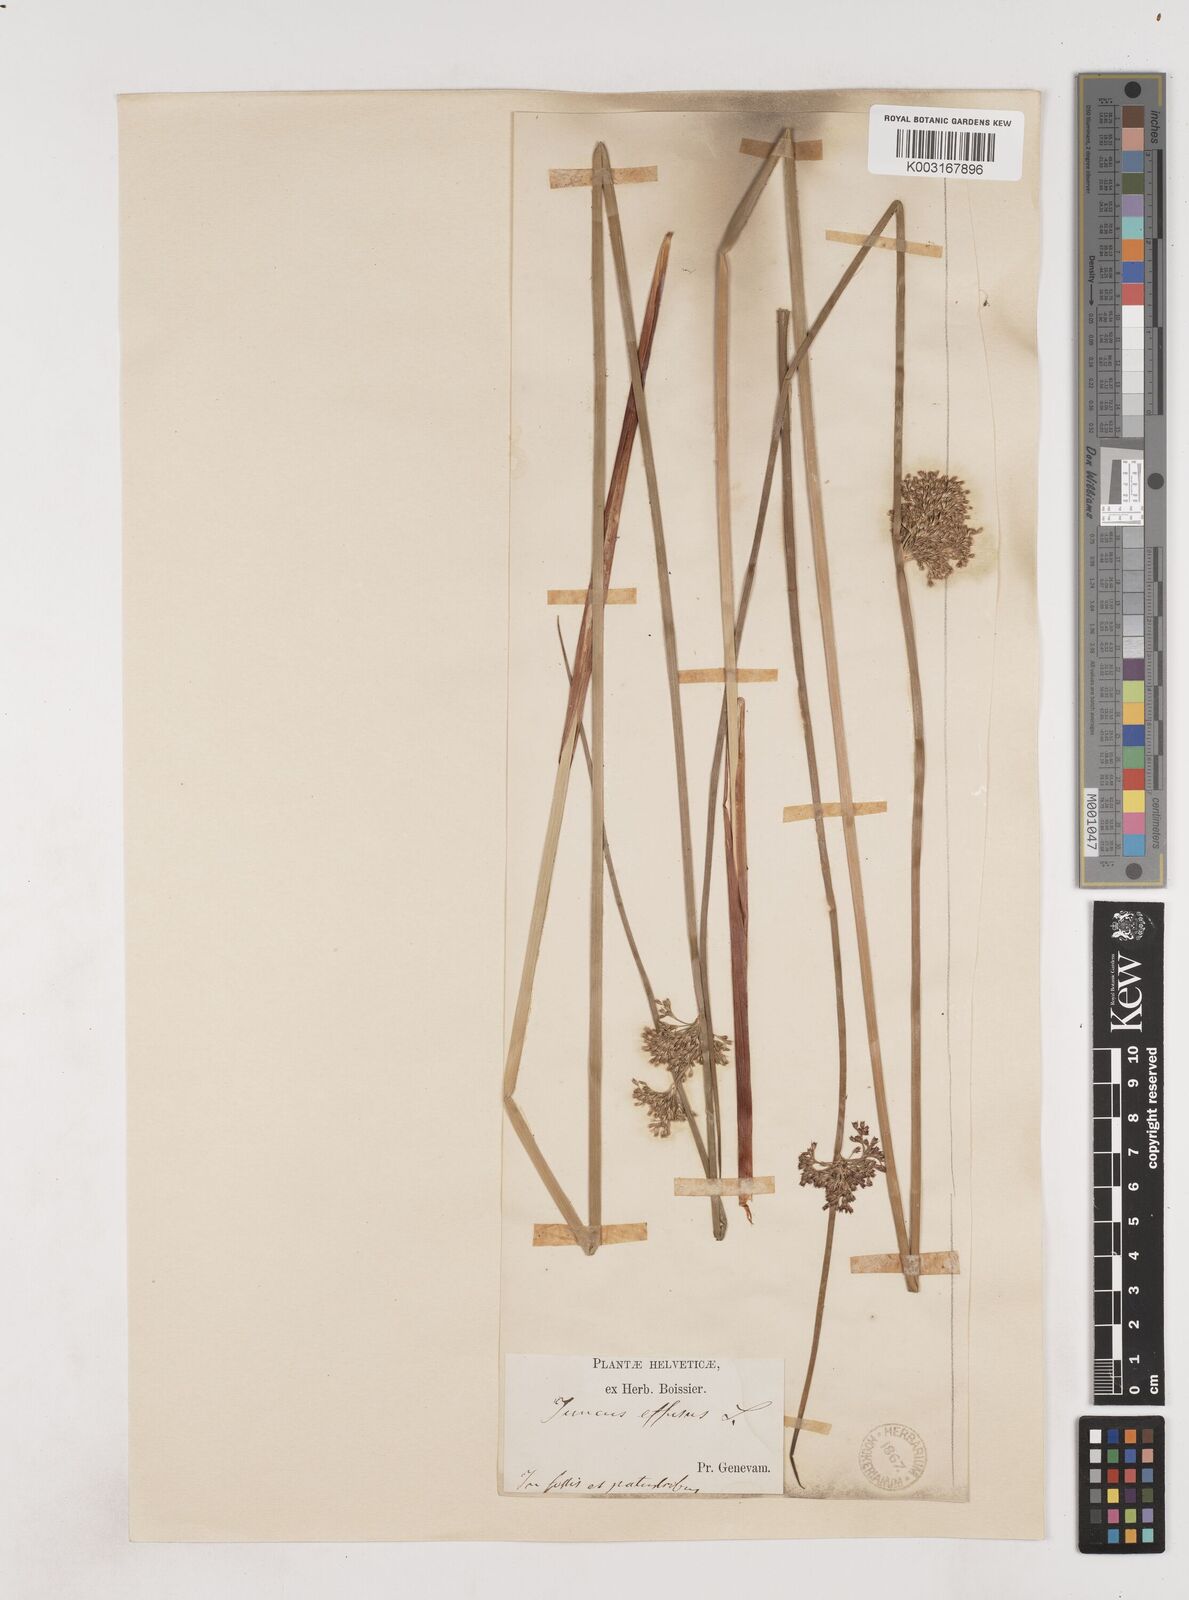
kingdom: Plantae
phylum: Tracheophyta
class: Liliopsida
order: Poales
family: Juncaceae
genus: Juncus
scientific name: Juncus effusus
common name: Soft rush
